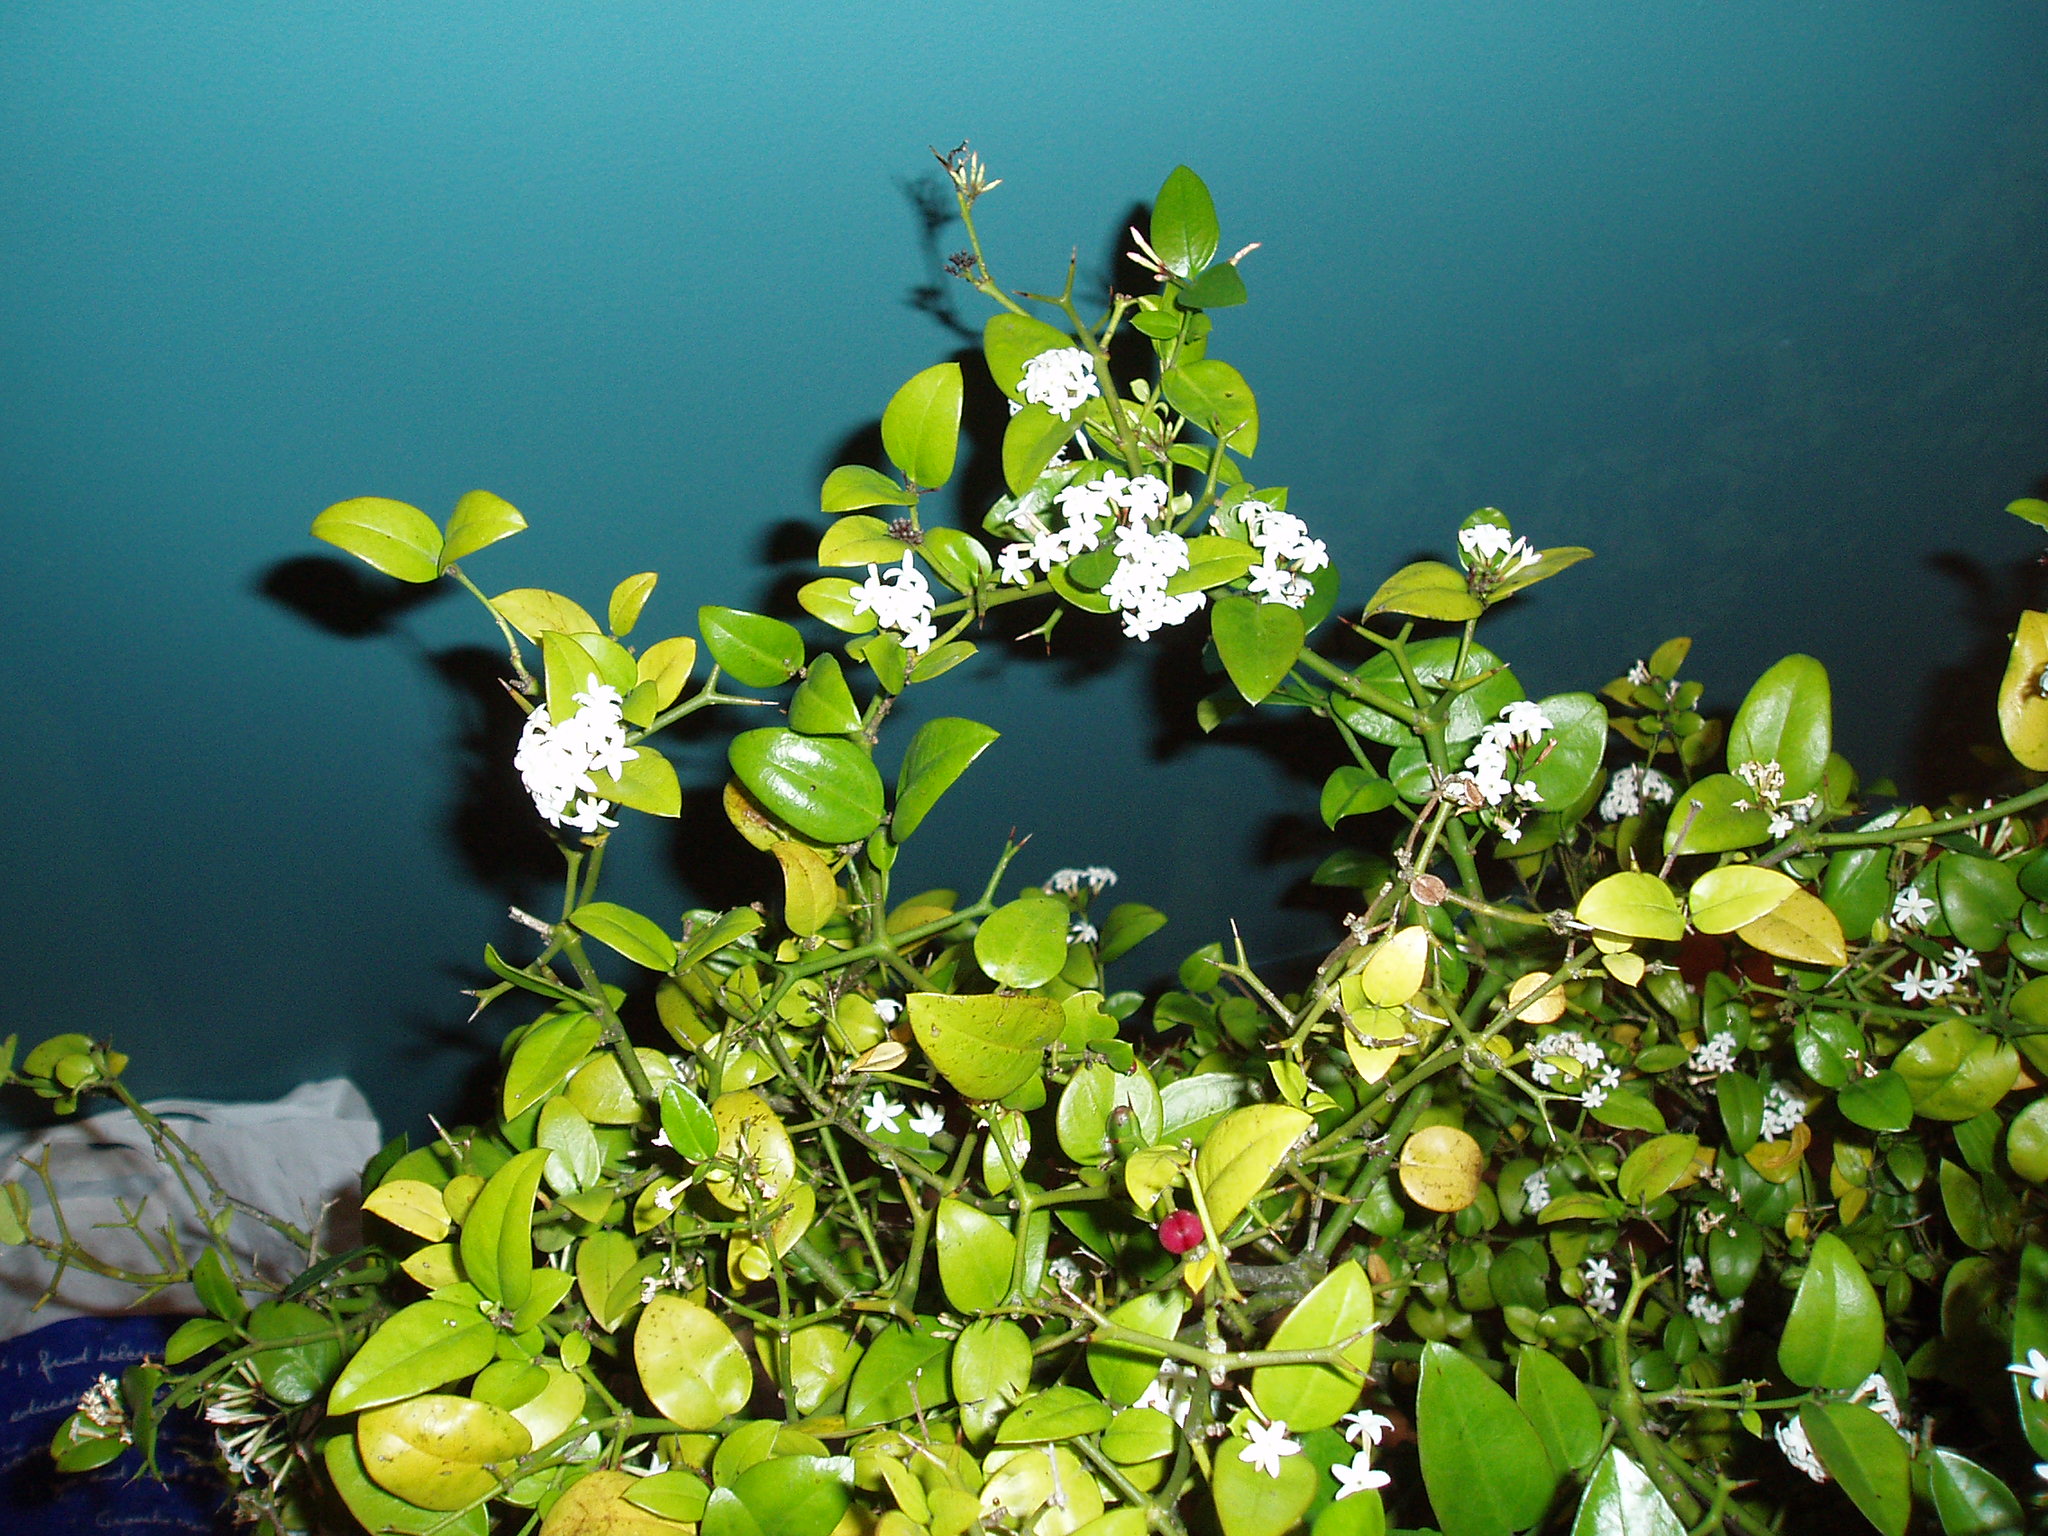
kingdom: Plantae
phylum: Tracheophyta
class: Magnoliopsida
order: Gentianales
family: Apocynaceae
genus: Carissa
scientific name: Carissa bispinosa
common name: Forest num-num
